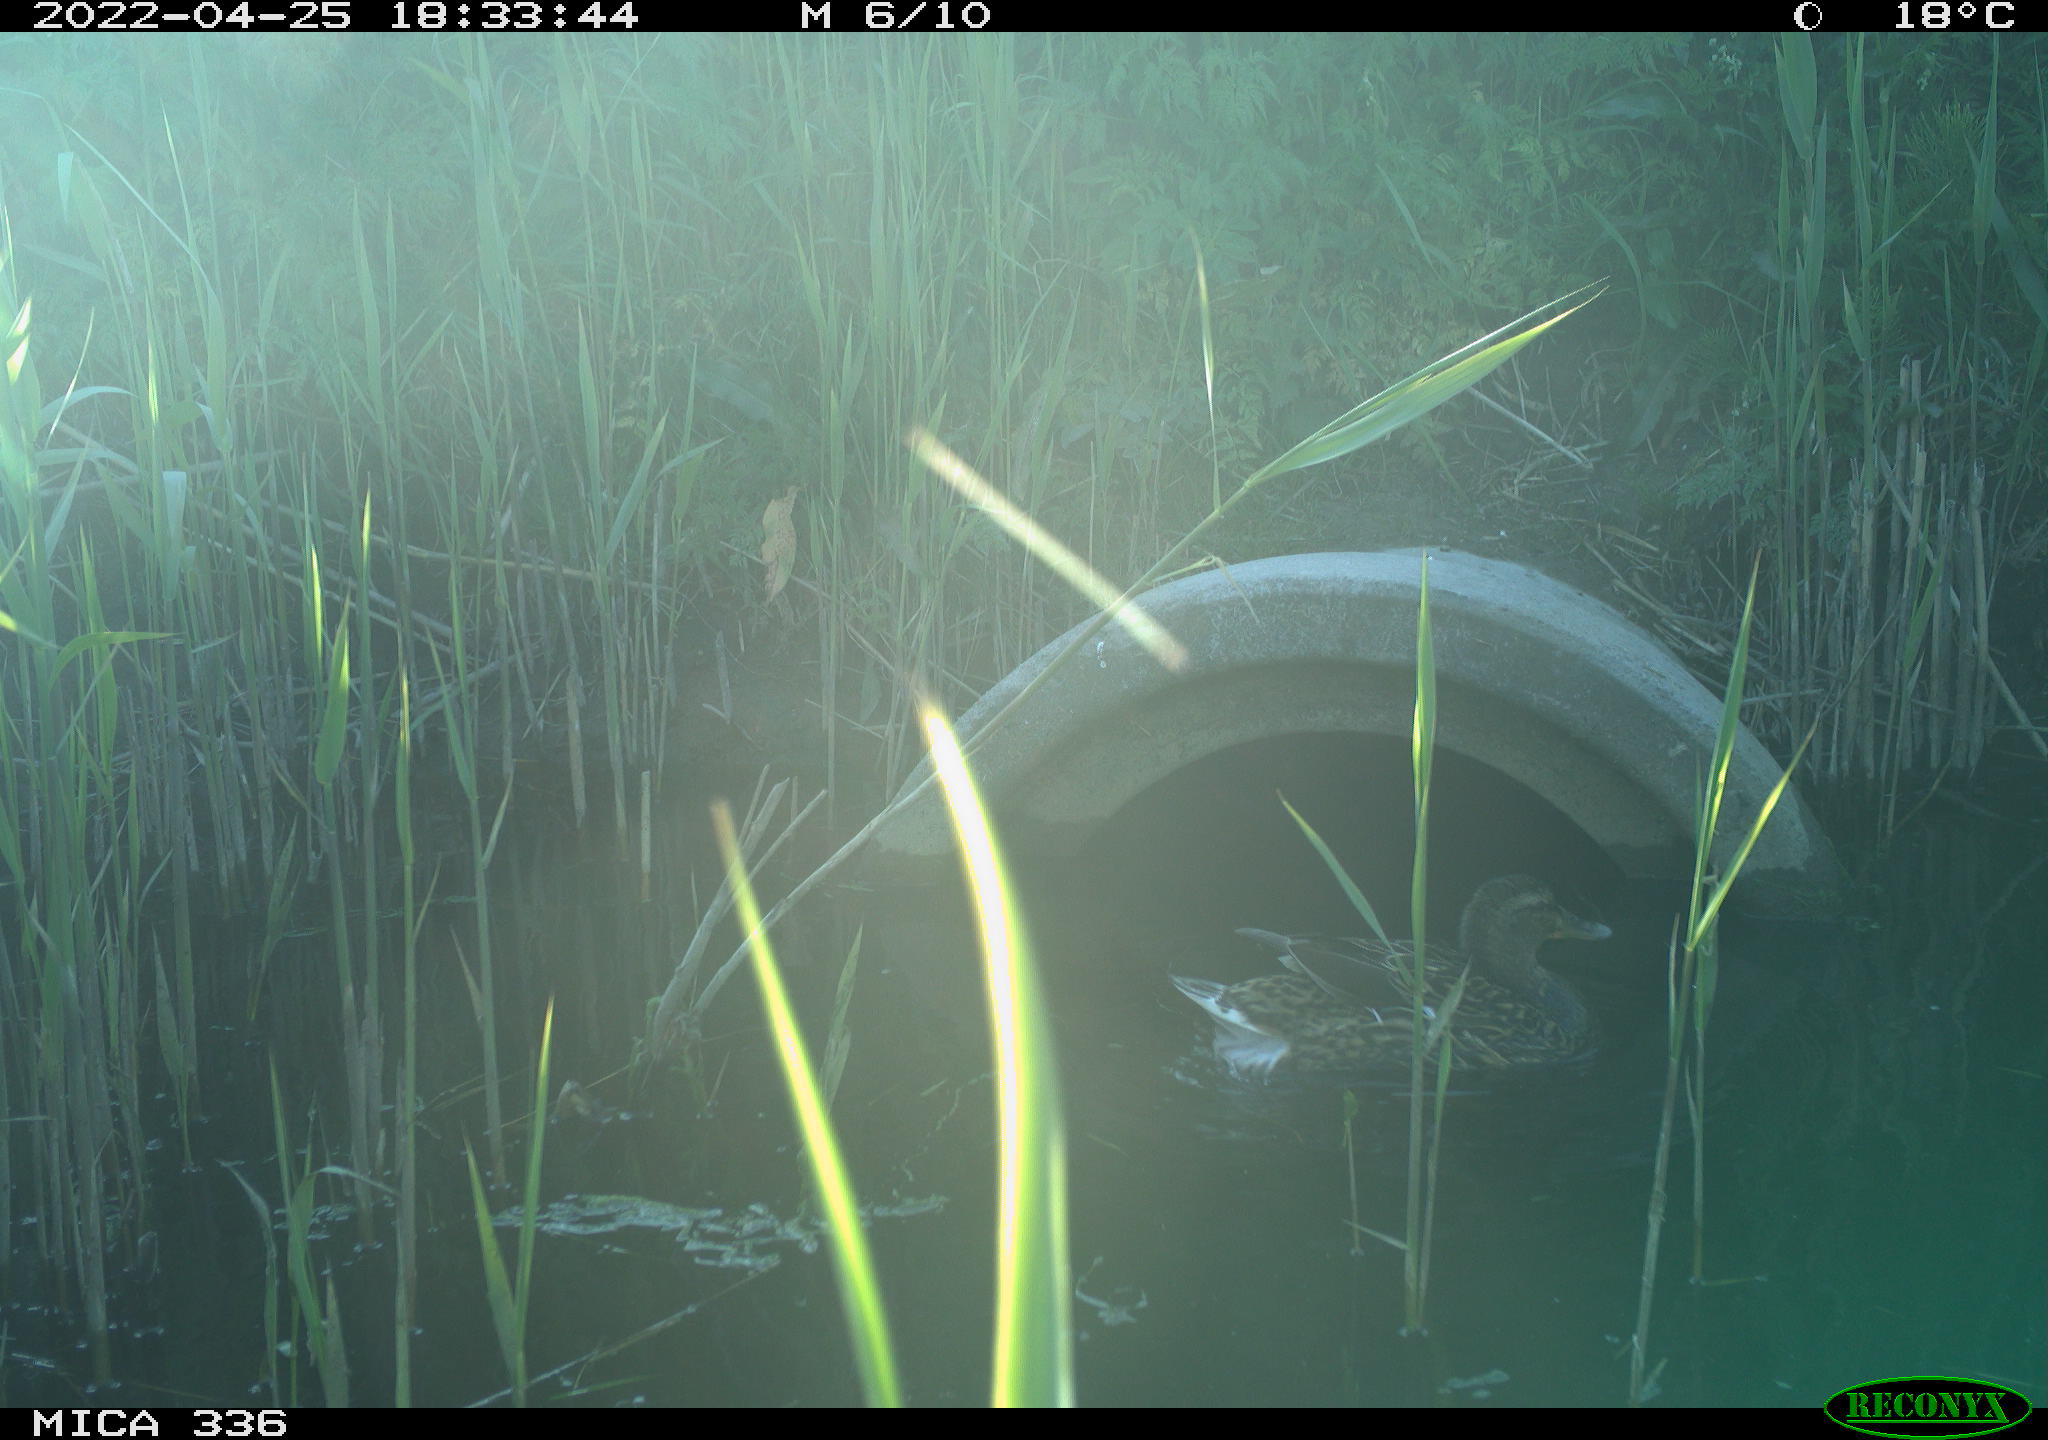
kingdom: Animalia
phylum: Chordata
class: Aves
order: Anseriformes
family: Anatidae
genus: Mareca
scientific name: Mareca strepera
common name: Gadwall
